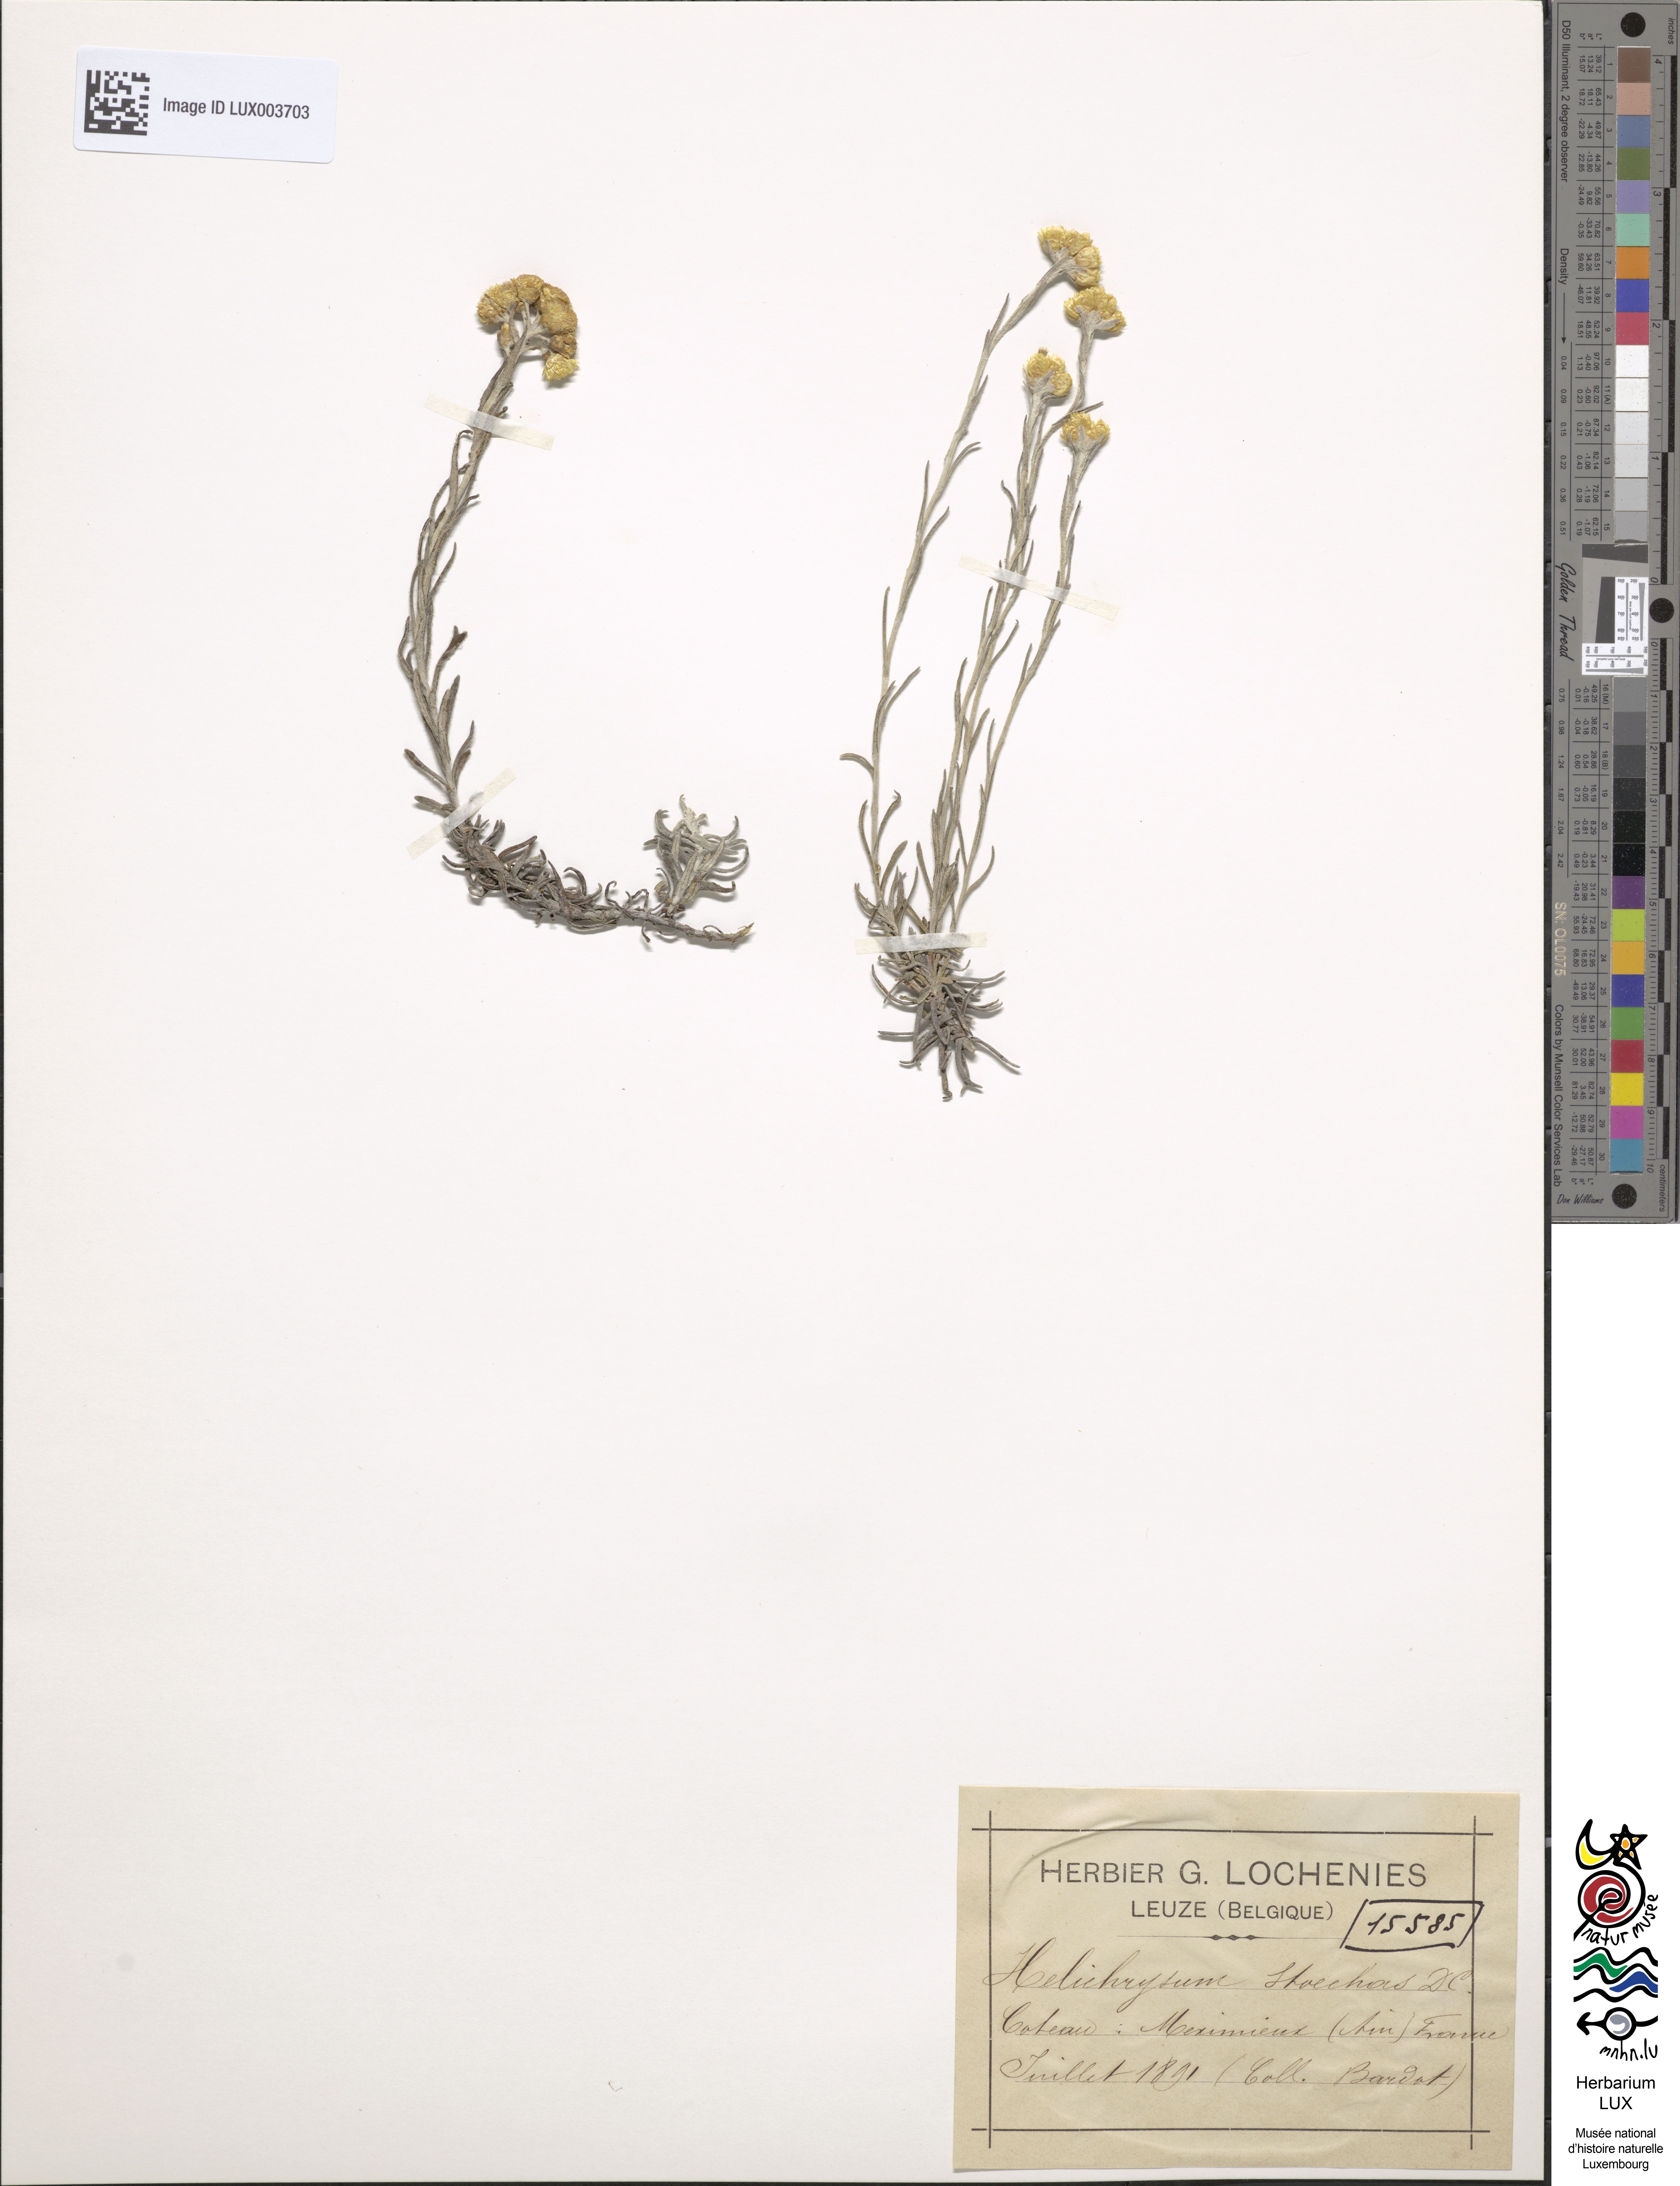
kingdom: Plantae
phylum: Tracheophyta
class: Magnoliopsida
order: Asterales
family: Asteraceae
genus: Helichrysum
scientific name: Helichrysum stoechas
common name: Goldilocks
